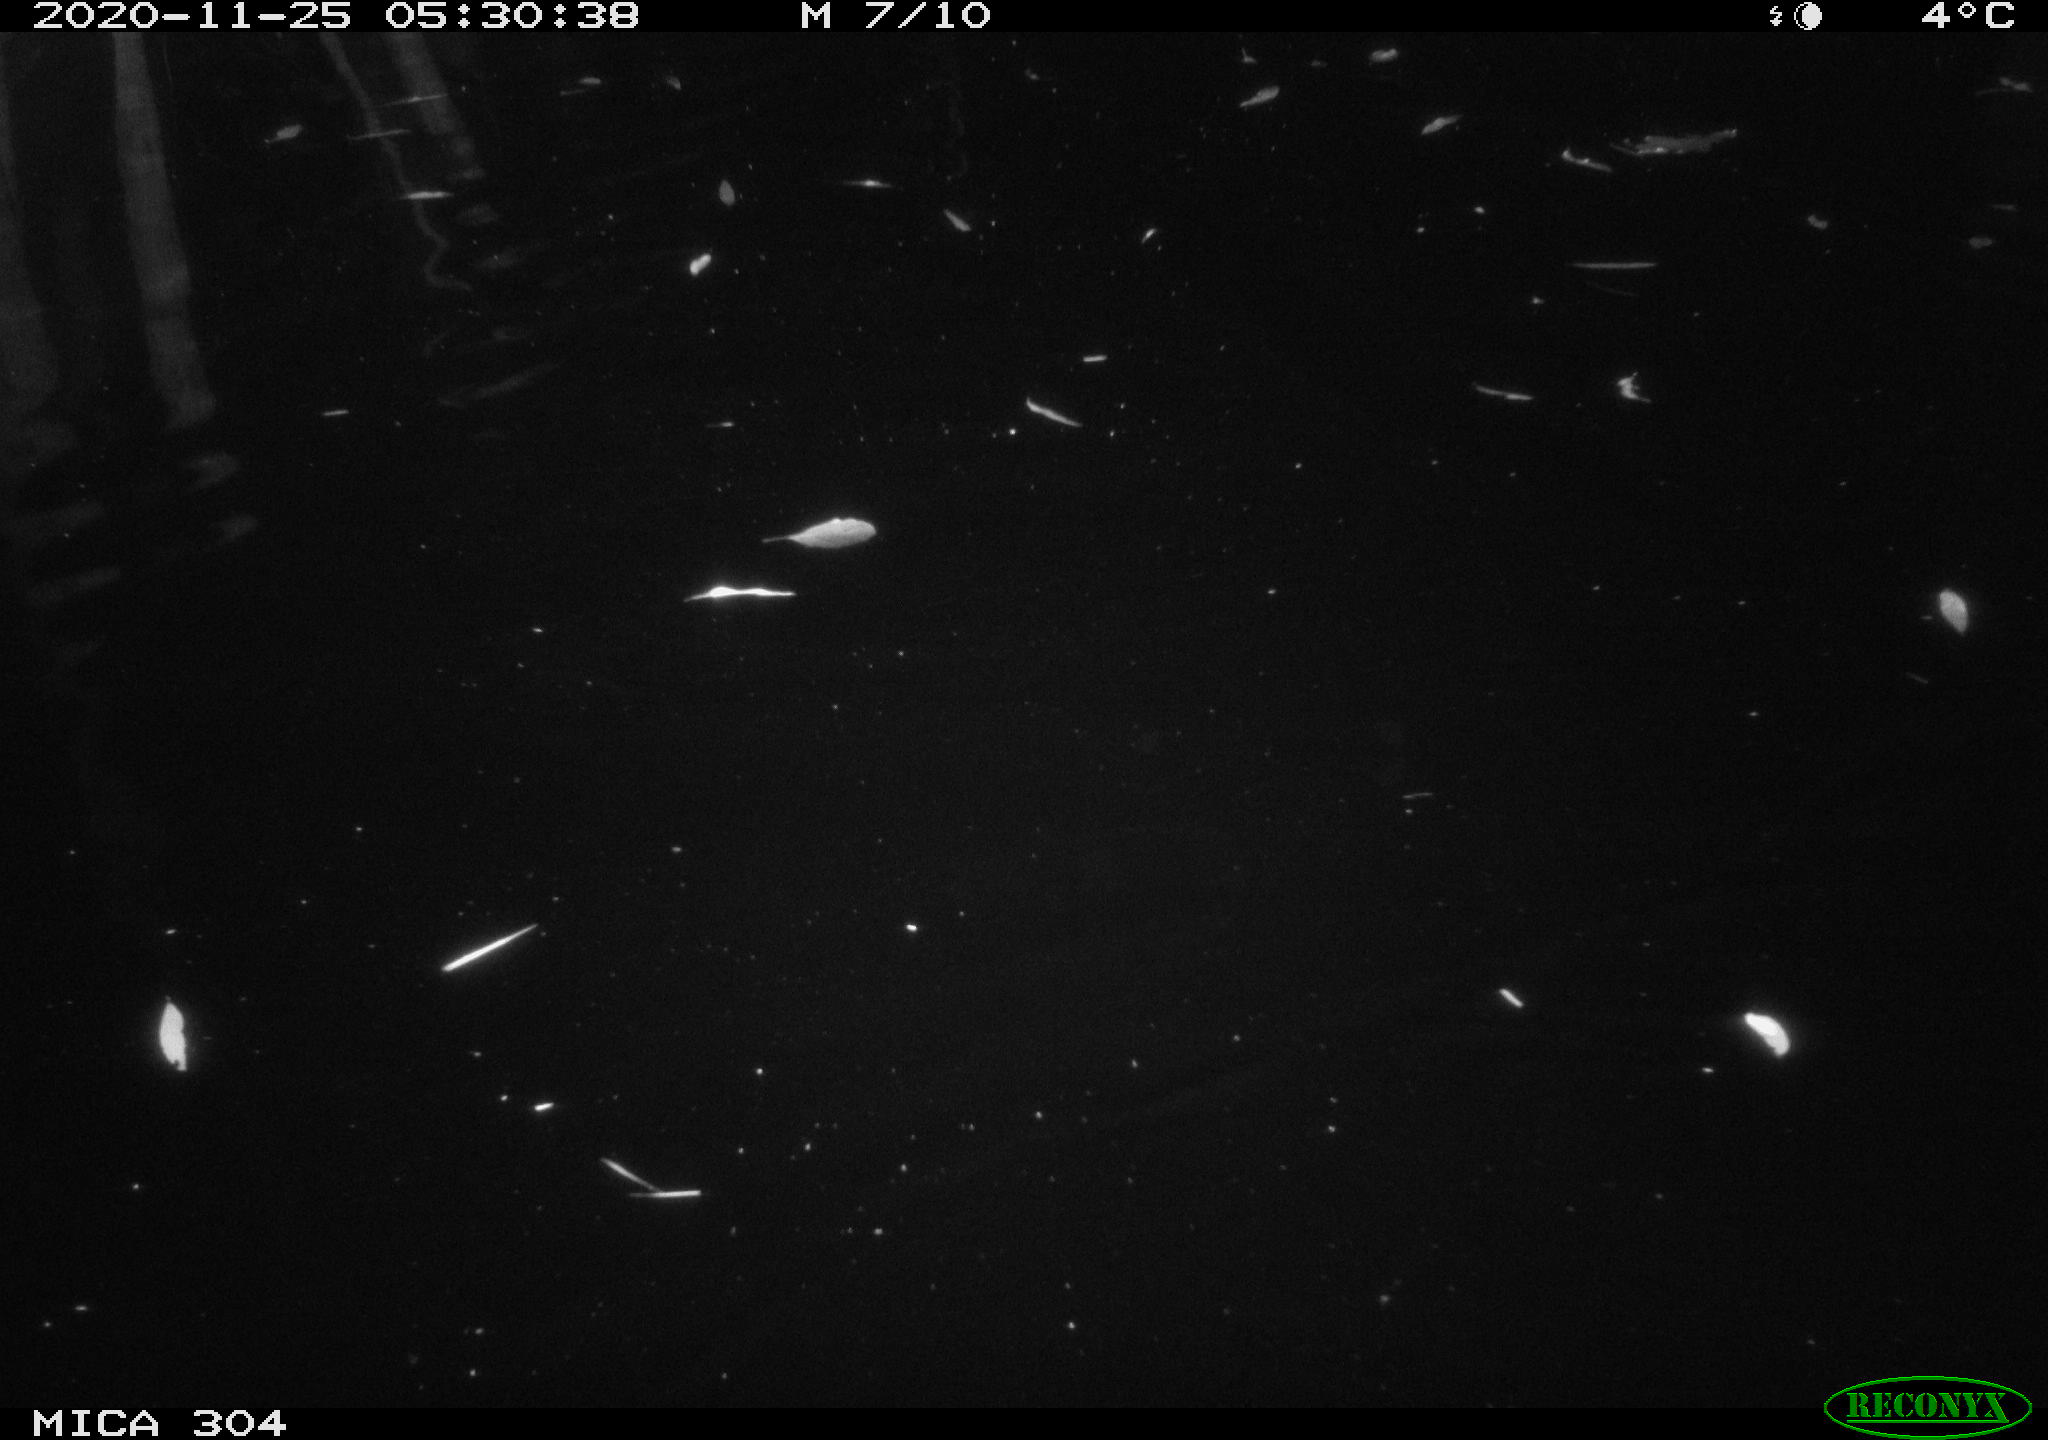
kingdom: Animalia
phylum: Chordata
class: Mammalia
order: Rodentia
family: Muridae
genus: Rattus
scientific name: Rattus norvegicus
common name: Brown rat
